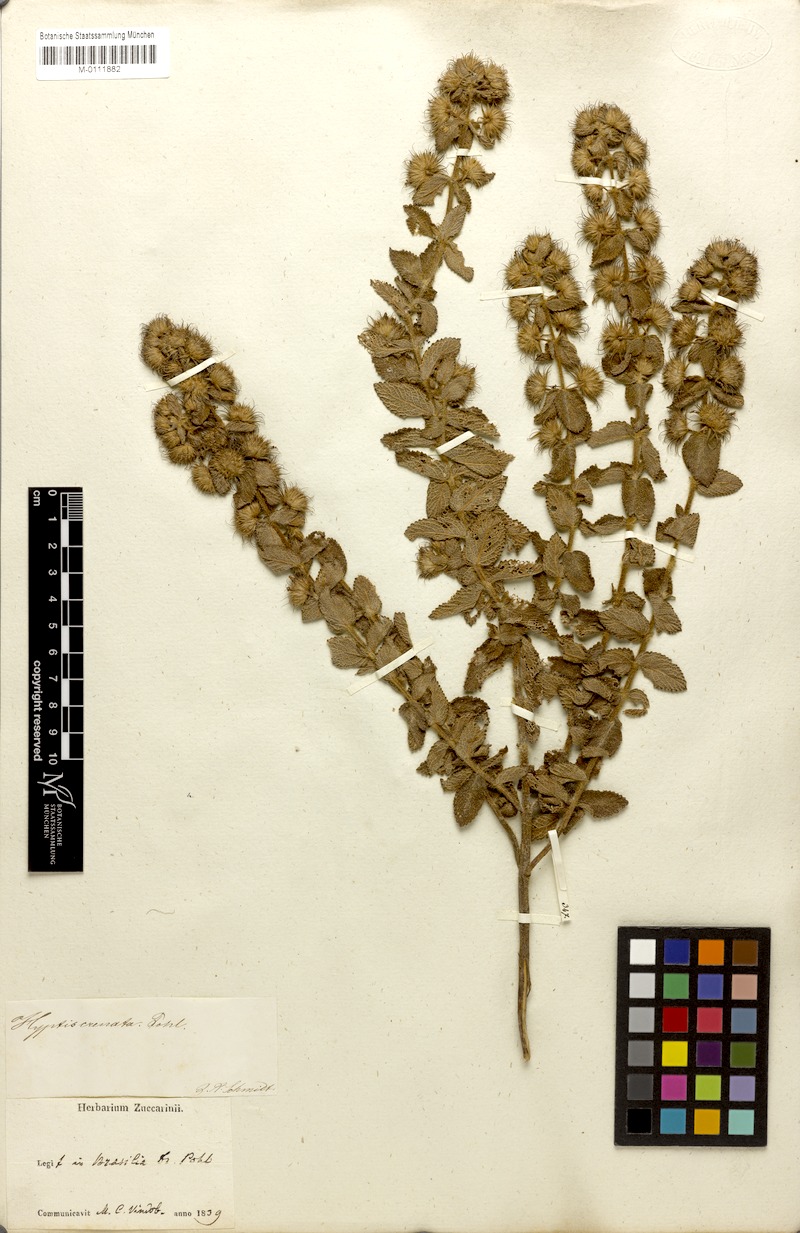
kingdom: Plantae
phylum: Tracheophyta
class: Magnoliopsida
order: Lamiales
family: Lamiaceae
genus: Hyptis
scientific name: Hyptis crenata
